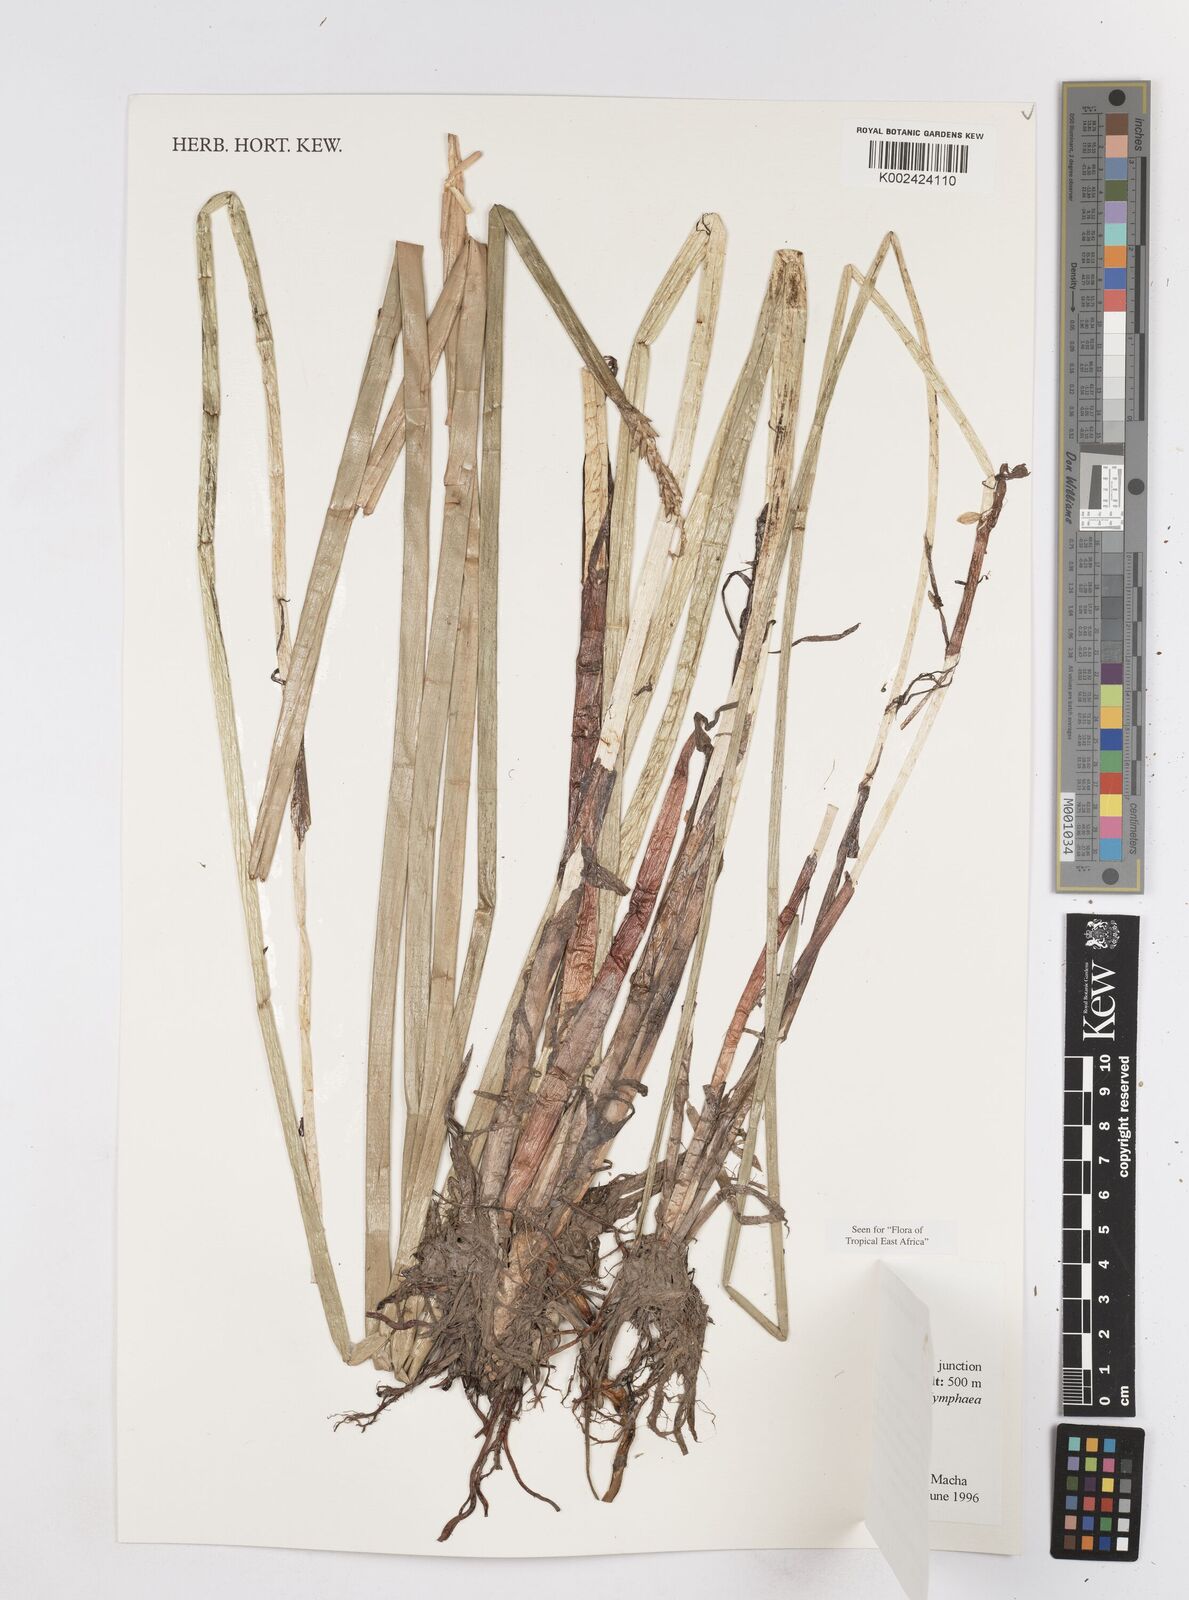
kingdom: Plantae
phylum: Tracheophyta
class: Liliopsida
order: Poales
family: Cyperaceae
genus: Eleocharis
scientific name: Eleocharis dulcis
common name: Chinese water chestnut
